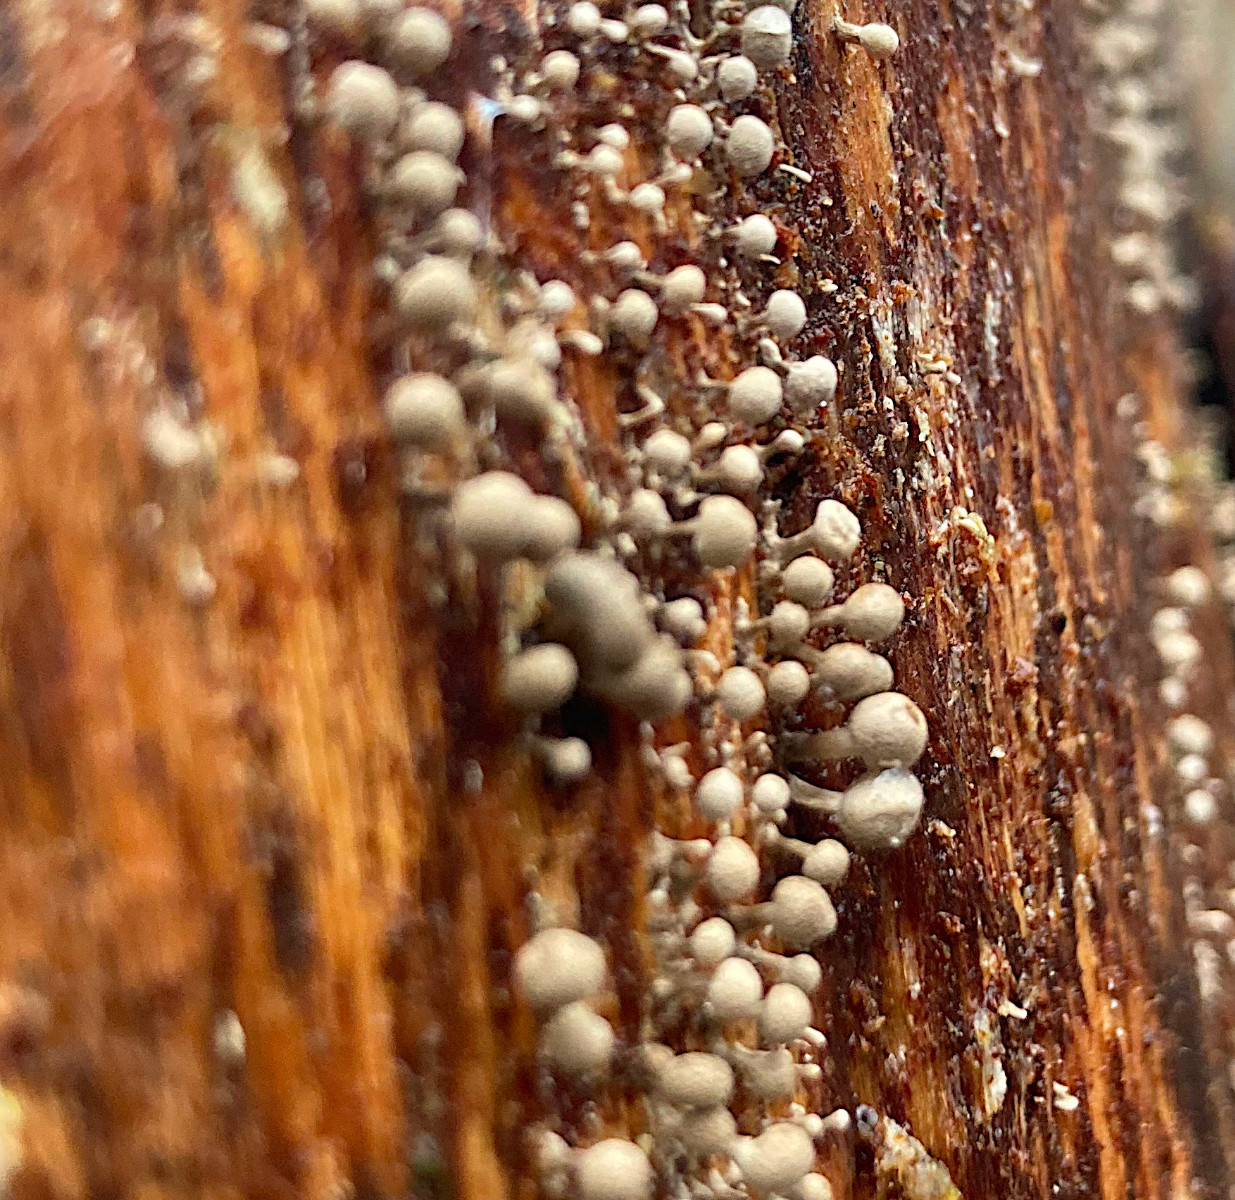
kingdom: Fungi
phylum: Basidiomycota
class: Atractiellomycetes
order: Atractiellales
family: Phleogenaceae
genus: Phleogena
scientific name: Phleogena faginea
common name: pudderkølle
